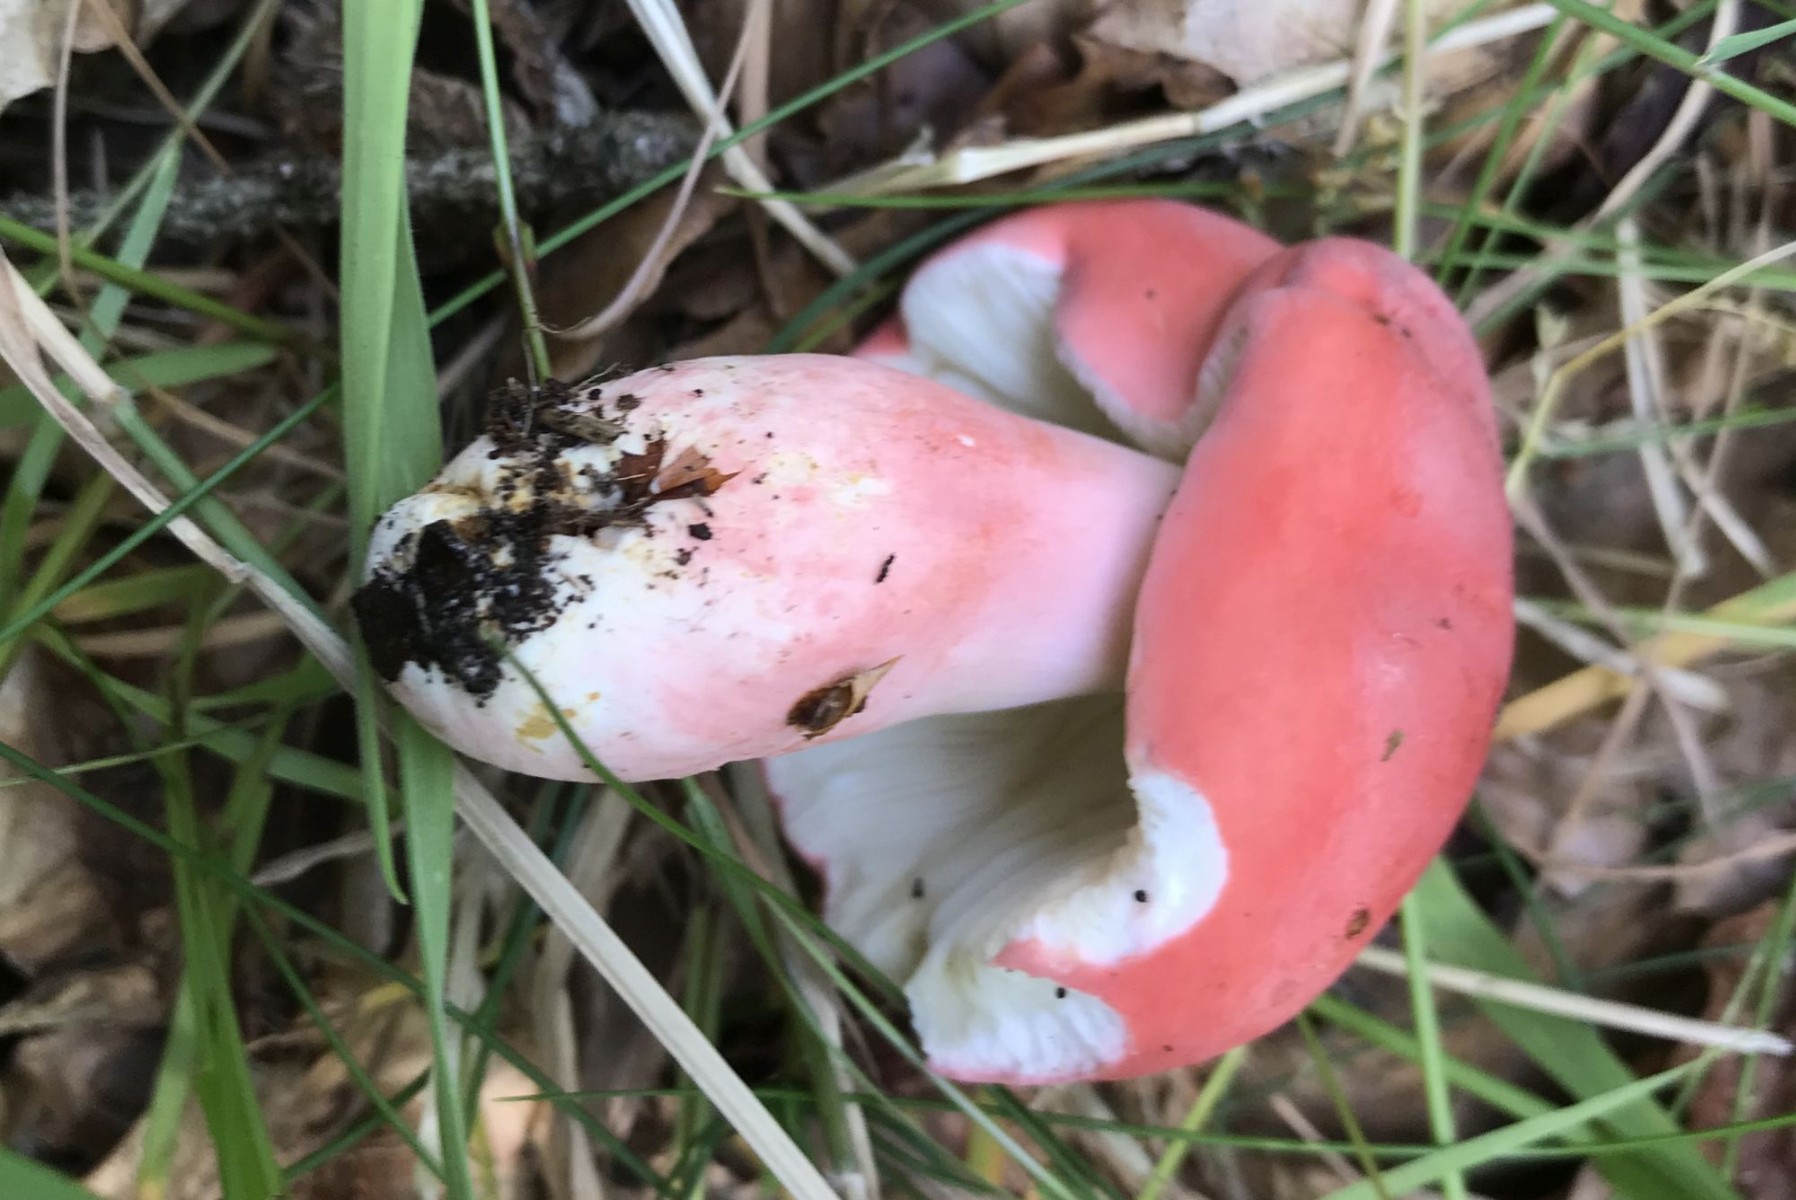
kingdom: Fungi
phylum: Basidiomycota
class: Agaricomycetes
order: Russulales
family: Russulaceae
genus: Russula
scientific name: Russula rosea
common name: fastkødet skørhat
